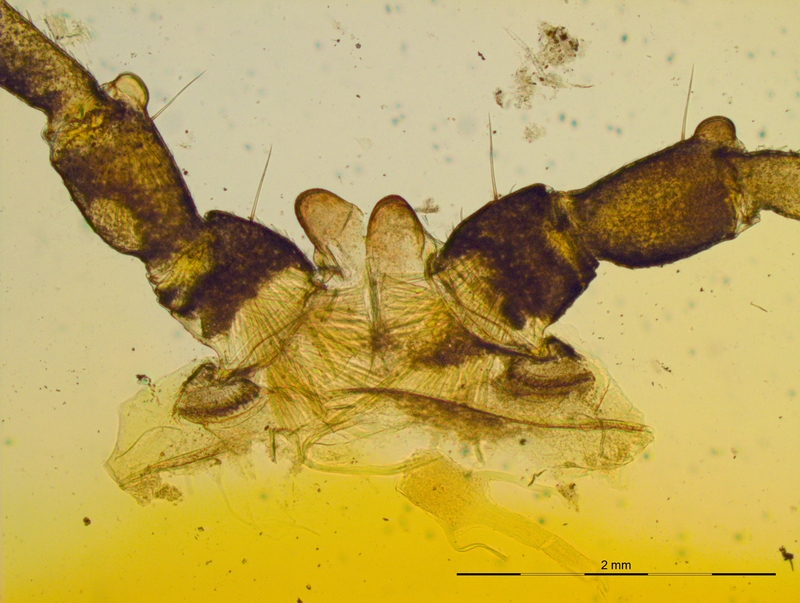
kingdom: Animalia
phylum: Arthropoda
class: Diplopoda
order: Polydesmida
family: Chelodesmidae
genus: Leptodesmus
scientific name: Leptodesmus ruidus
